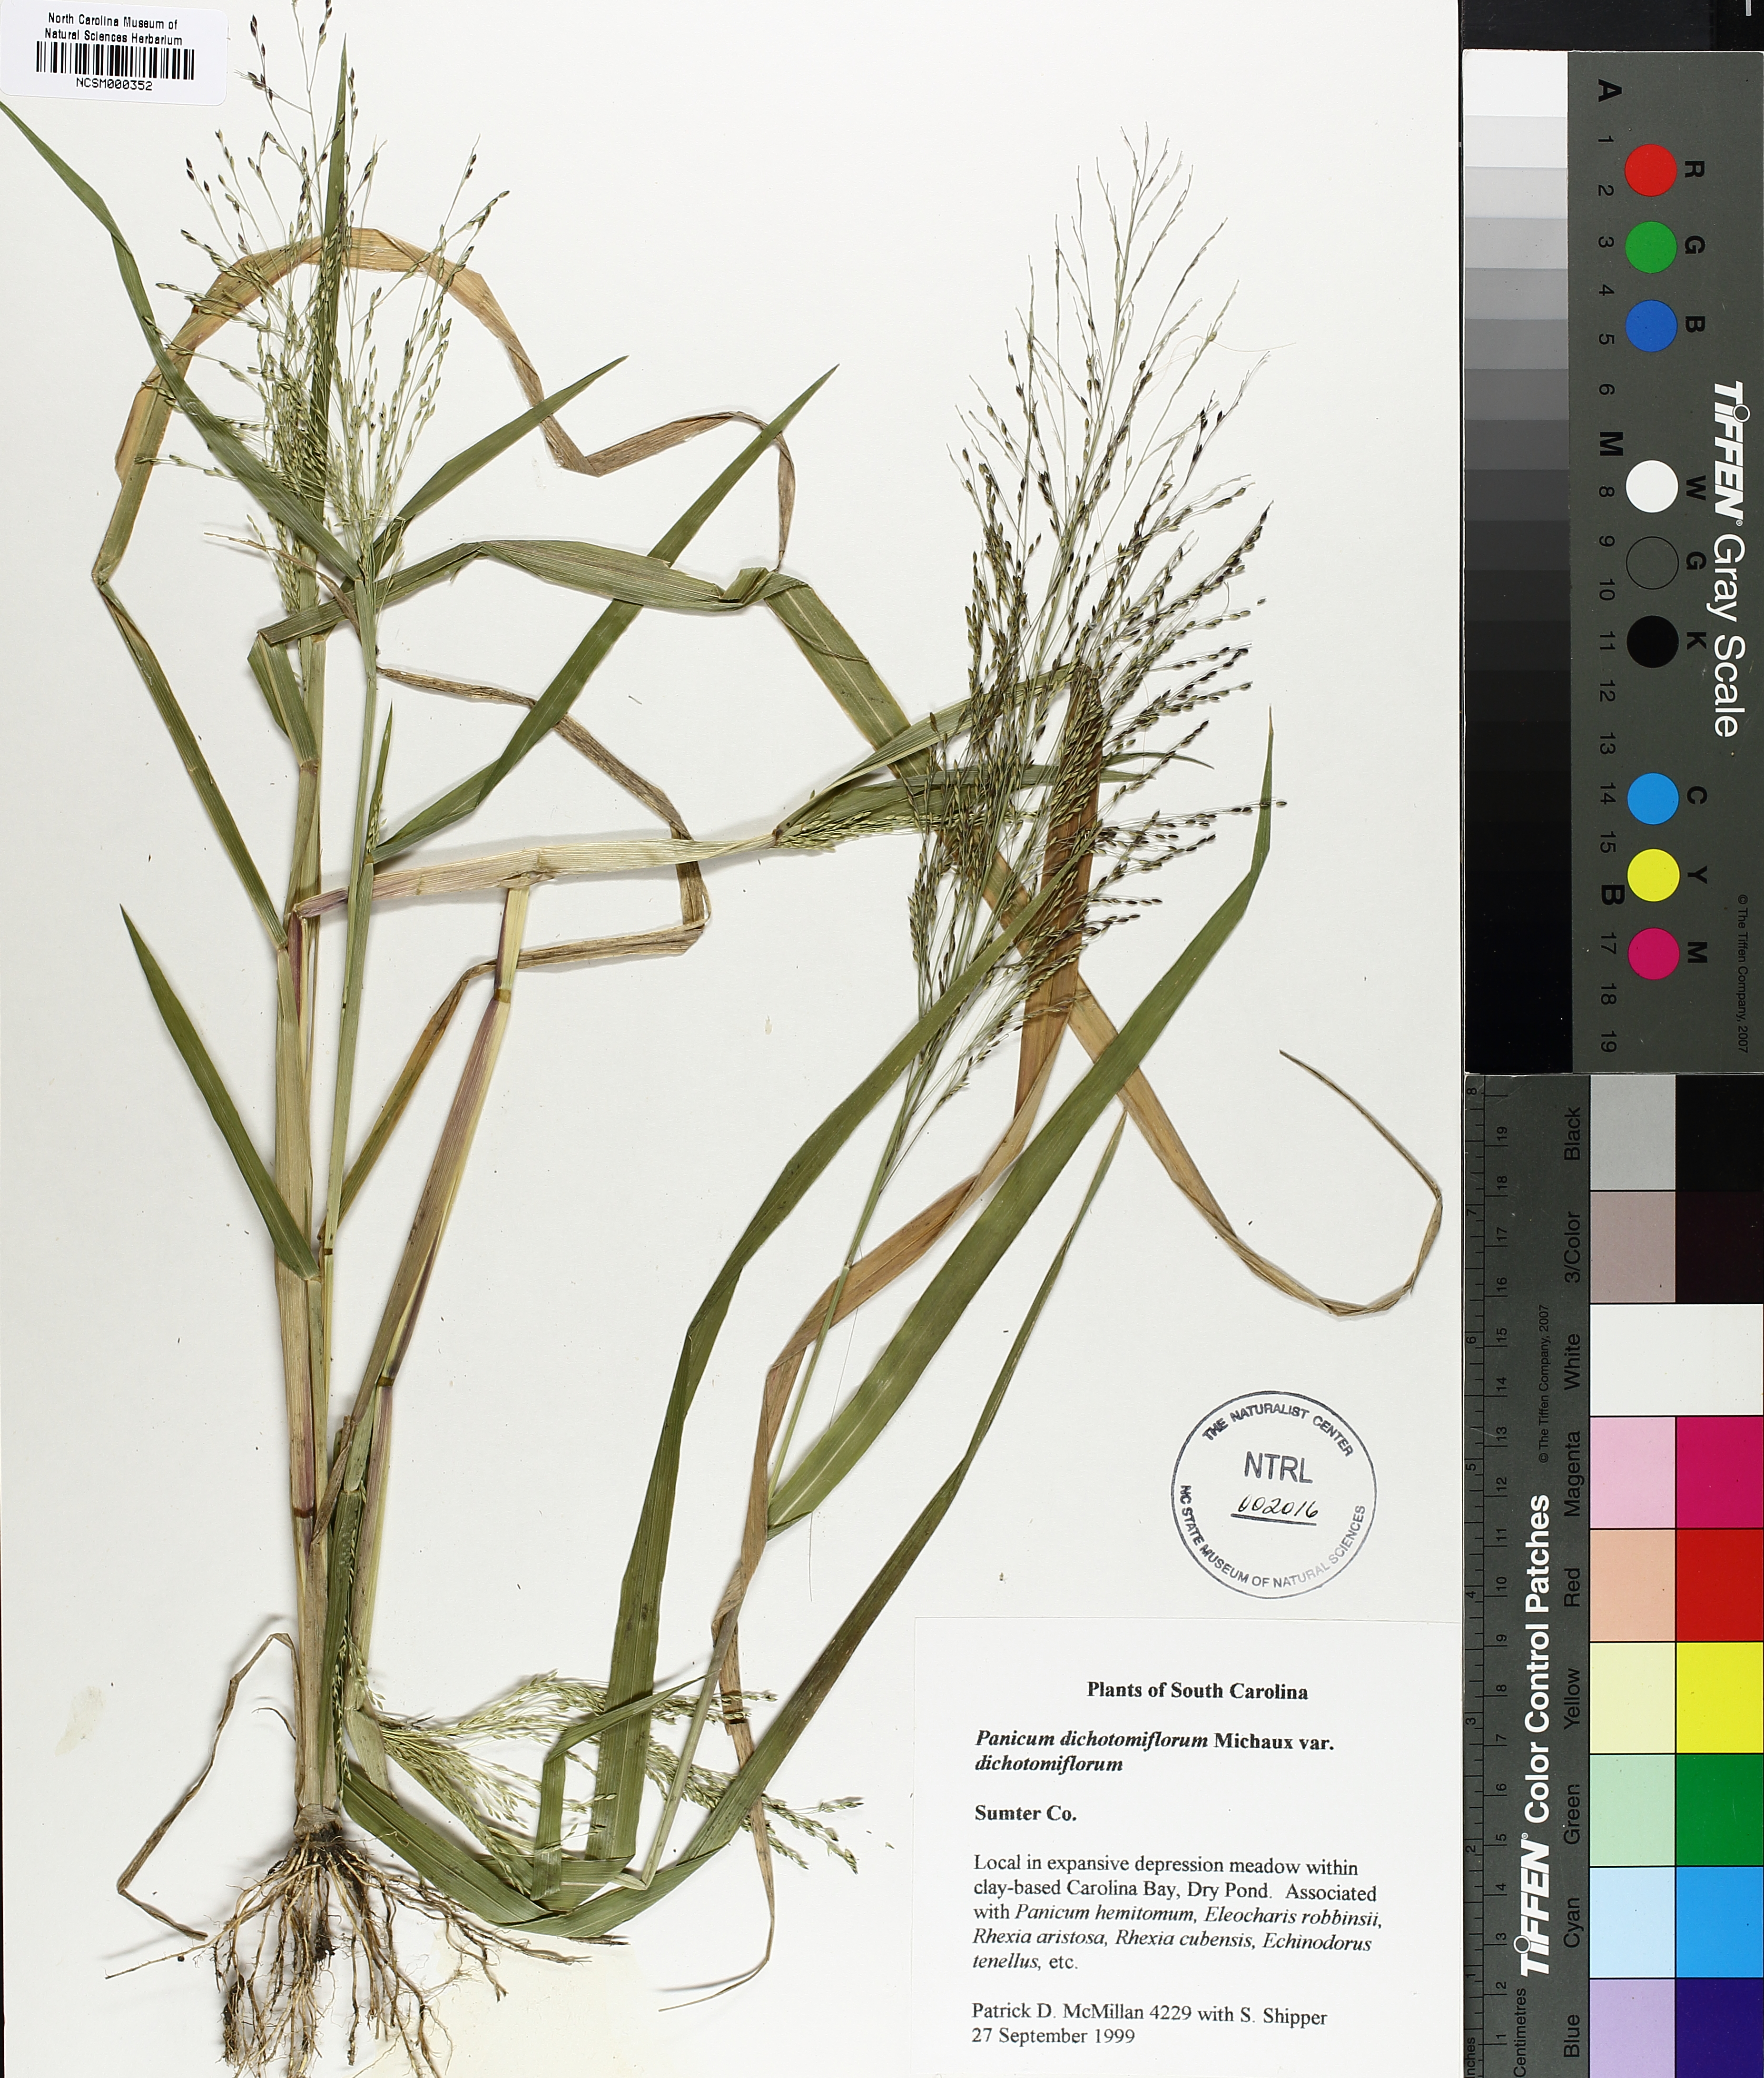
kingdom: Plantae
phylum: Tracheophyta
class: Liliopsida
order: Poales
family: Poaceae
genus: Panicum
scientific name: Panicum dichotomiflorum
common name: Autumn millet
